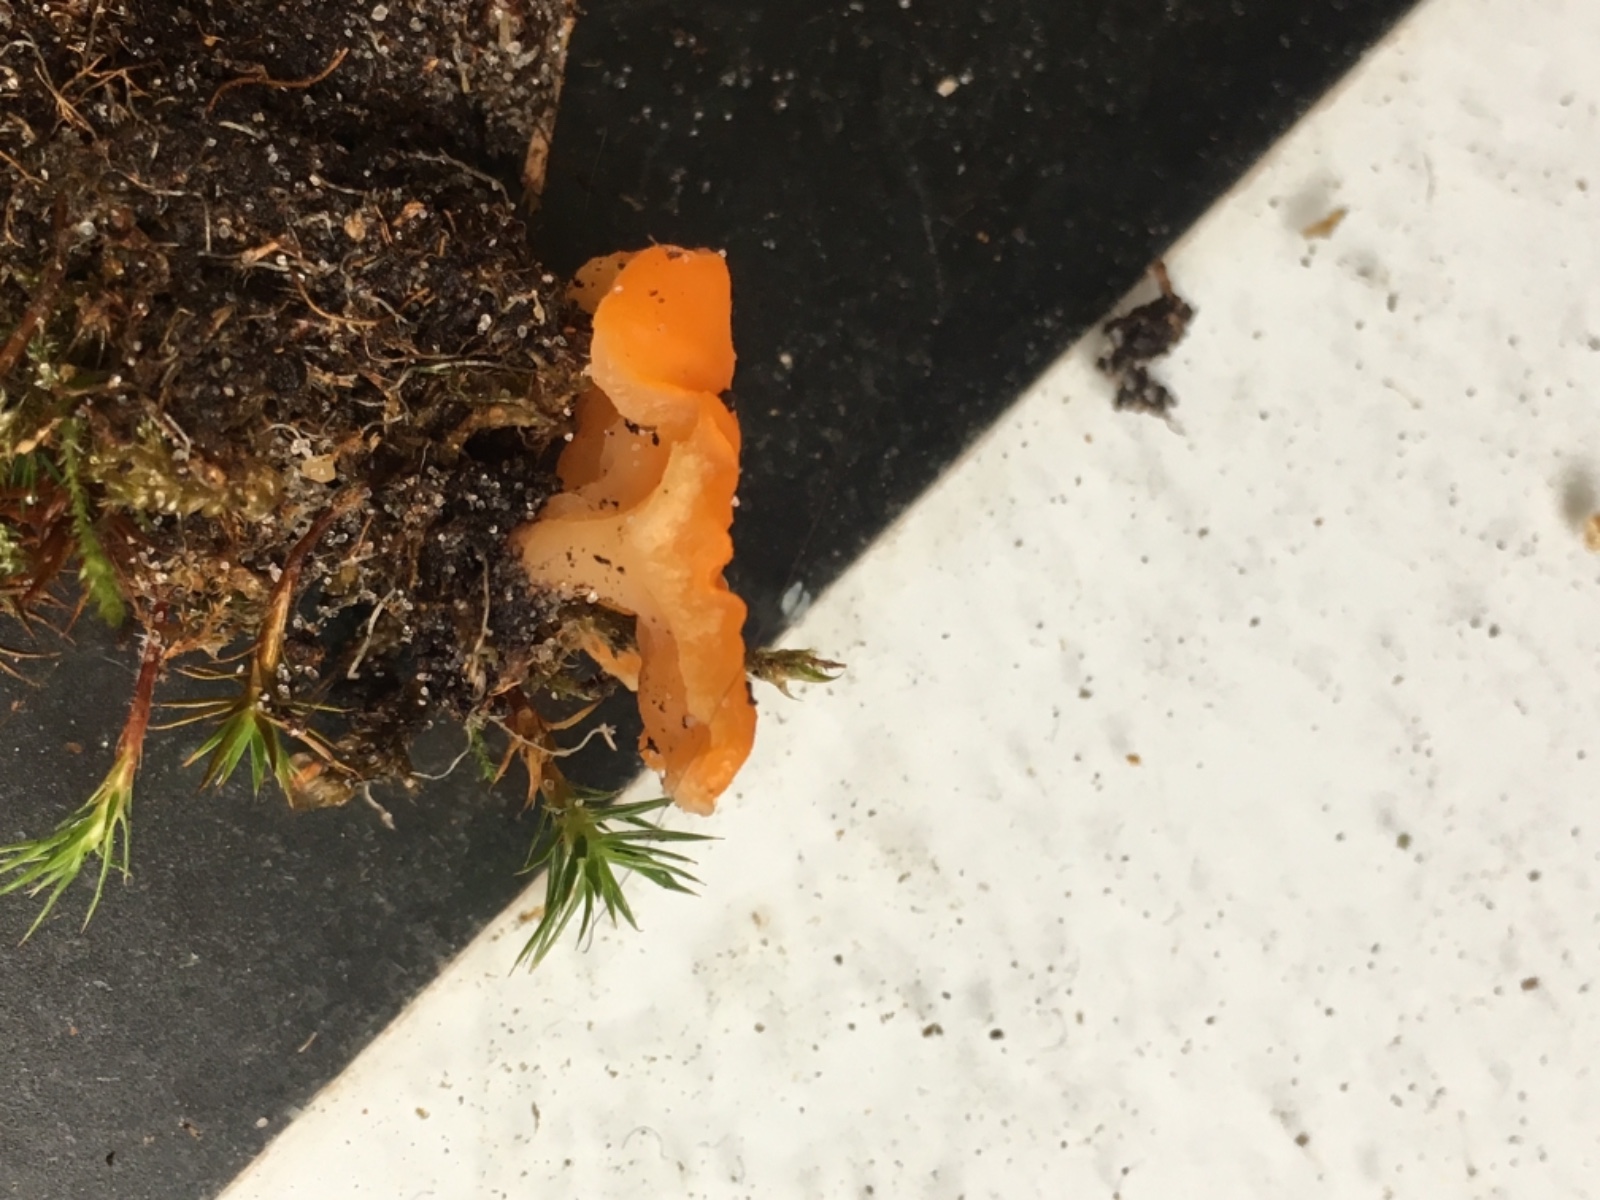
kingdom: Fungi
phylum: Ascomycota
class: Pezizomycetes
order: Pezizales
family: Pyronemataceae
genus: Neottiella
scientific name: Neottiella vivida
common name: sand-mosbæger
